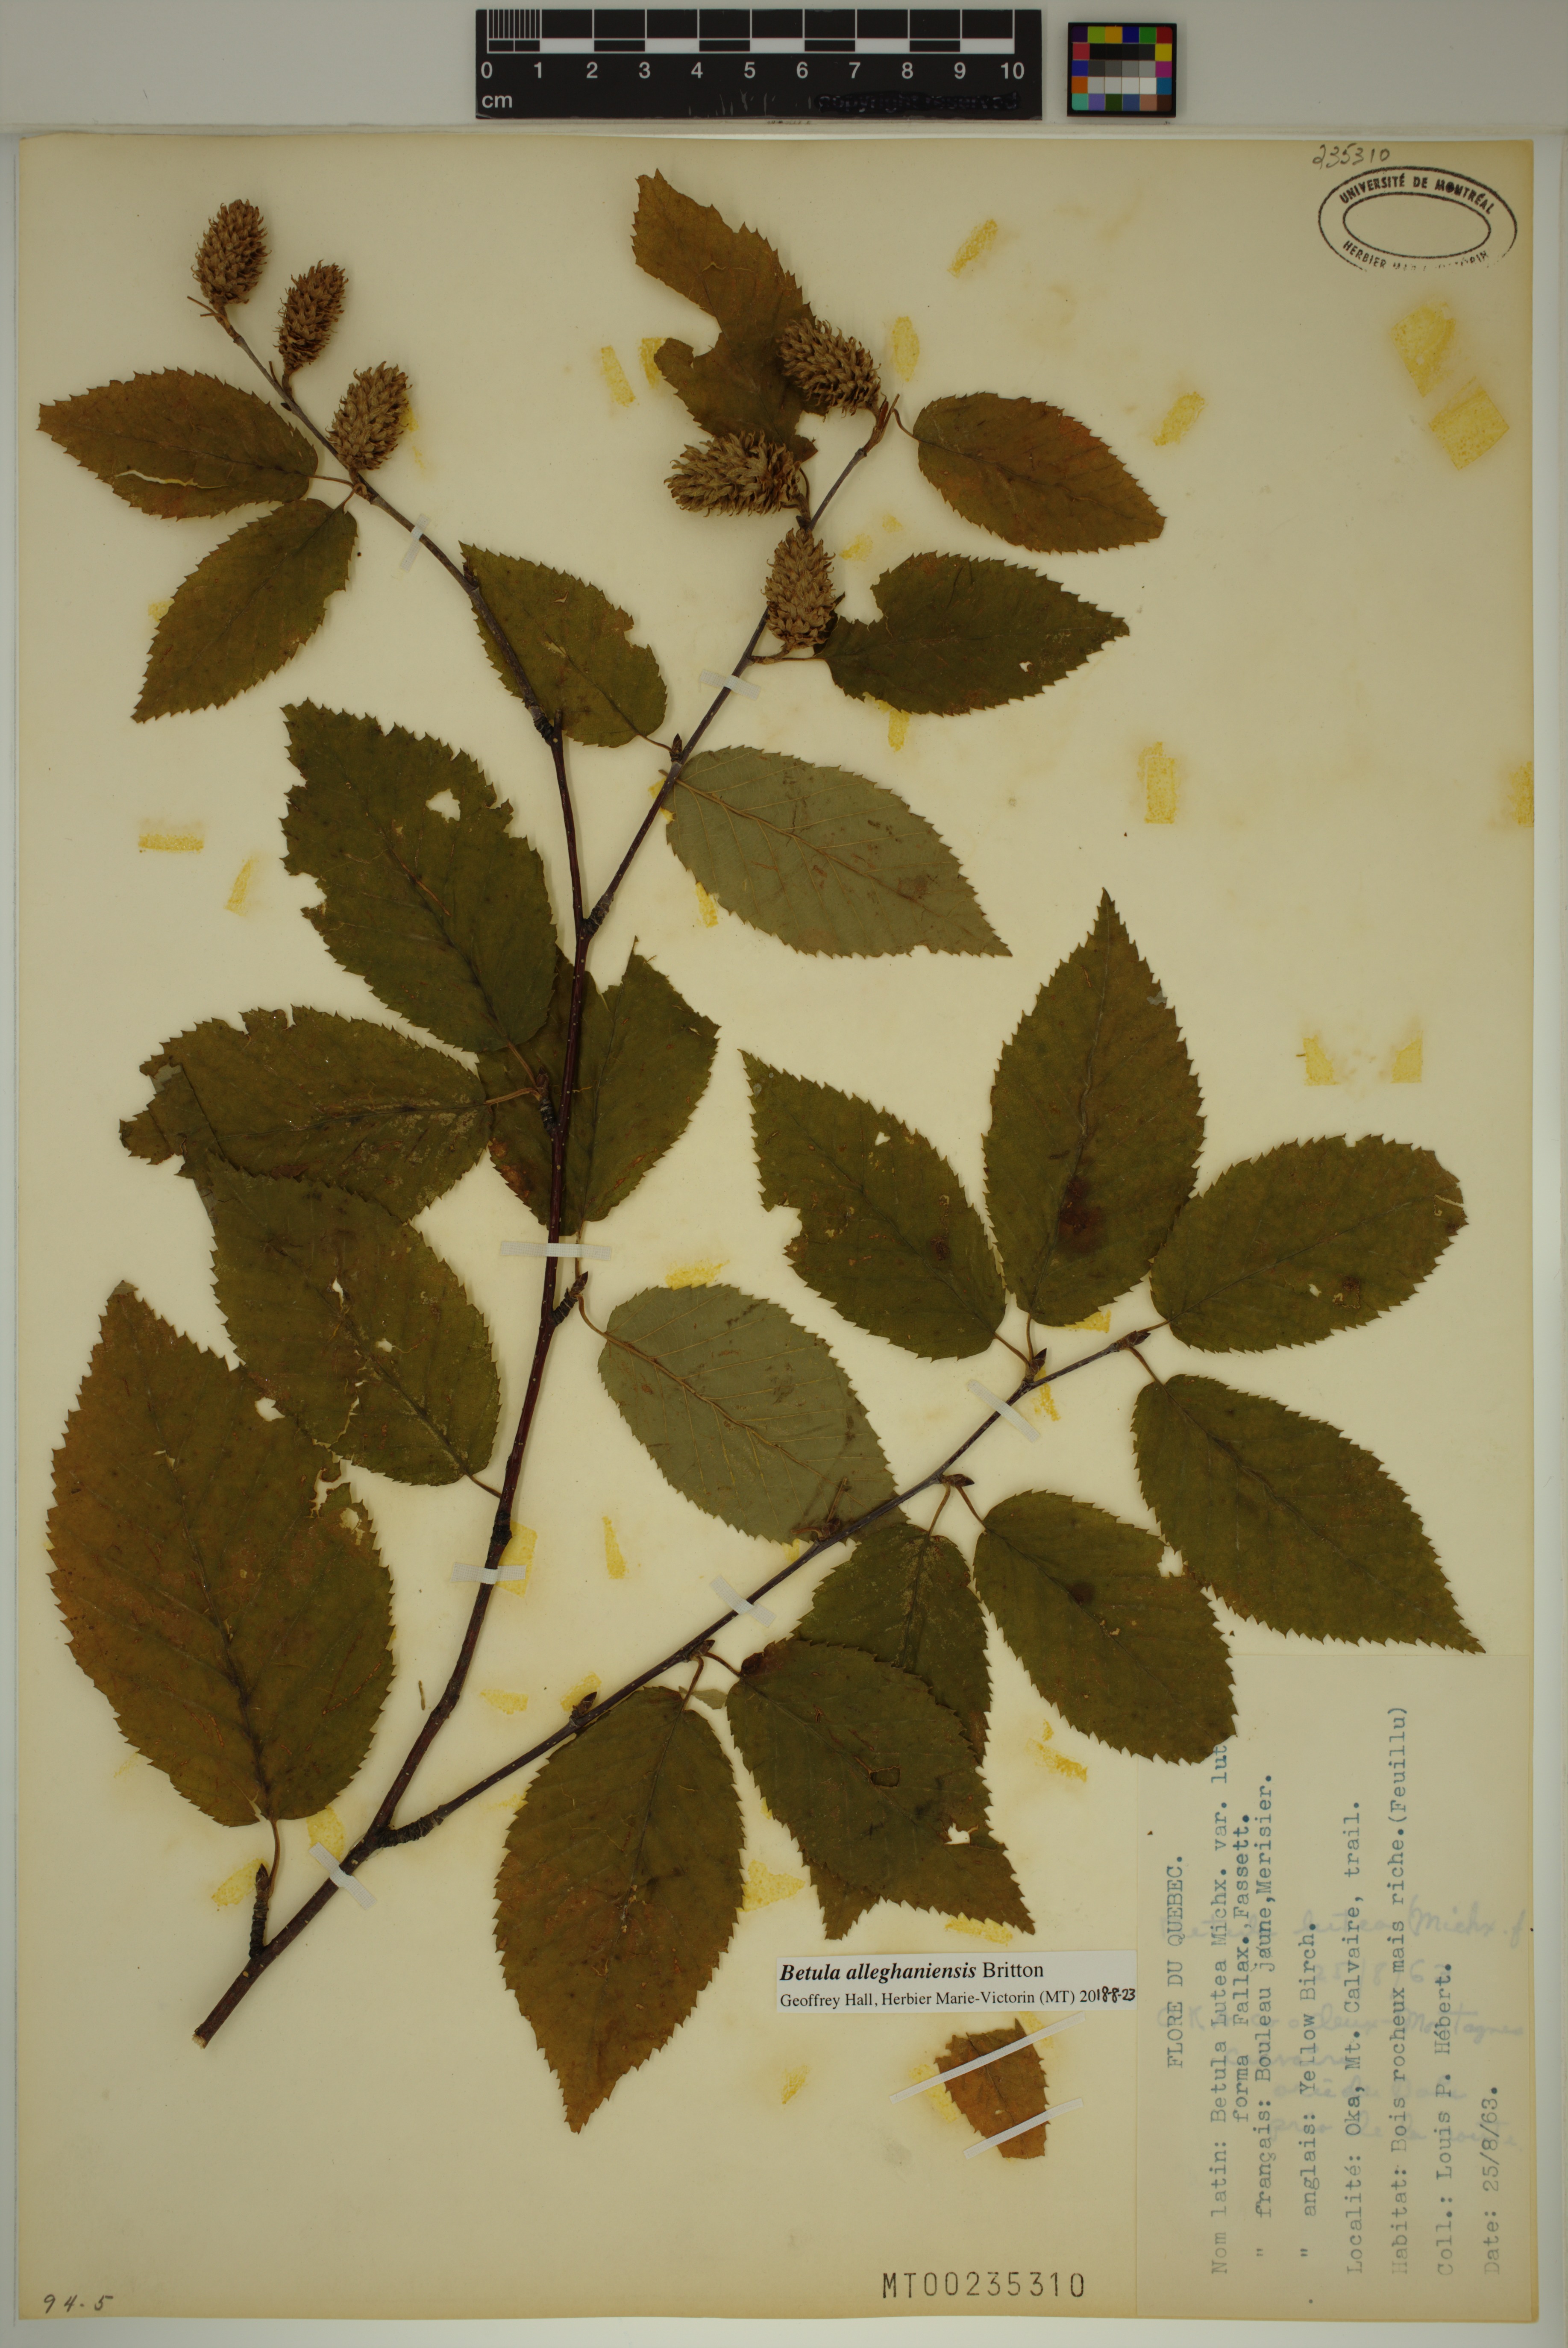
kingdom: Plantae
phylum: Tracheophyta
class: Magnoliopsida
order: Fagales
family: Betulaceae
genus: Betula
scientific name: Betula alleghaniensis
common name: Yellow birch
